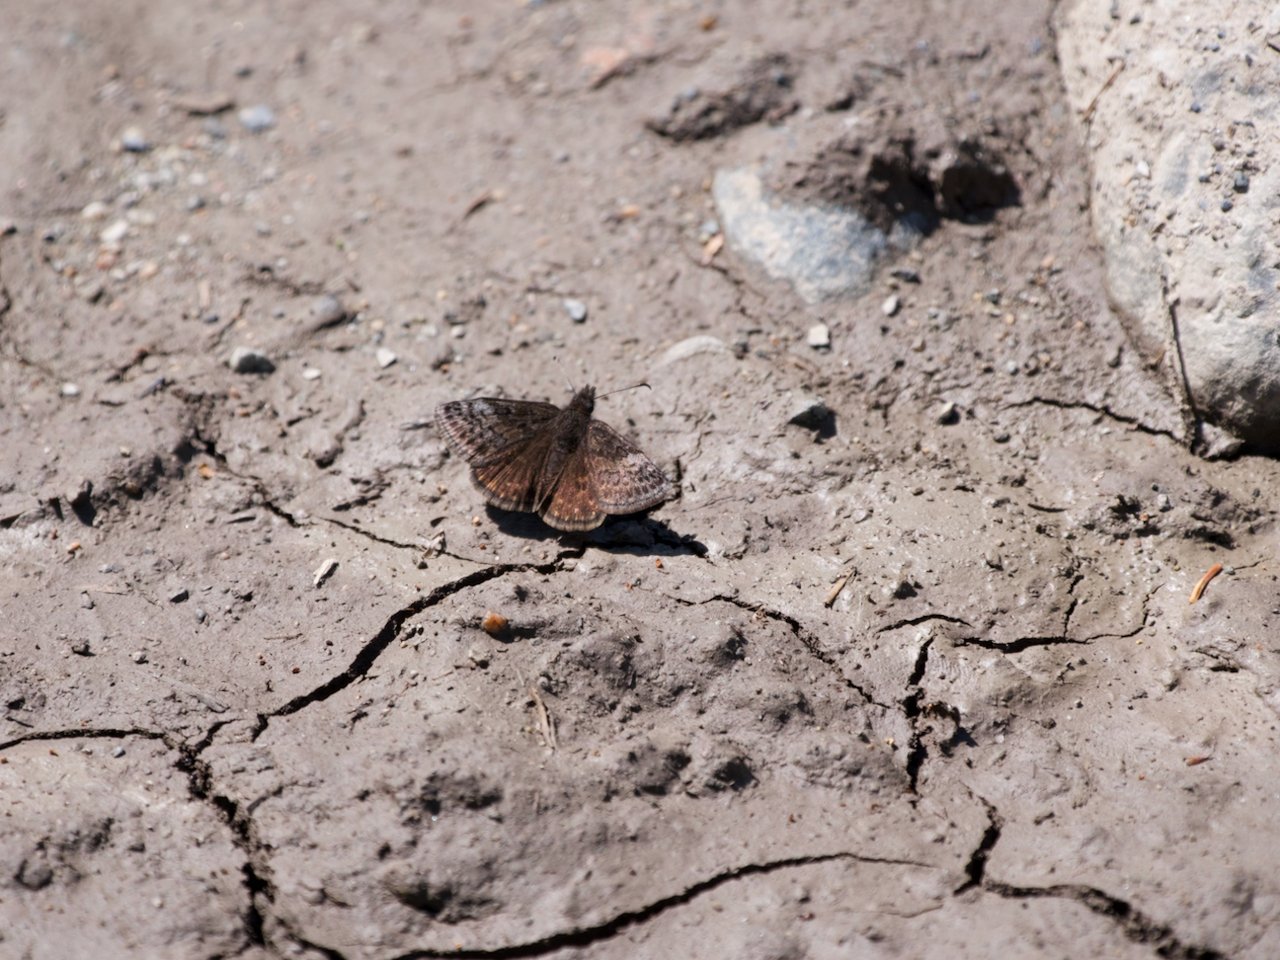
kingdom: Animalia
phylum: Arthropoda
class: Insecta
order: Lepidoptera
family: Hesperiidae
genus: Erynnis
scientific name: Erynnis icelus
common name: Dreamy Duskywing
